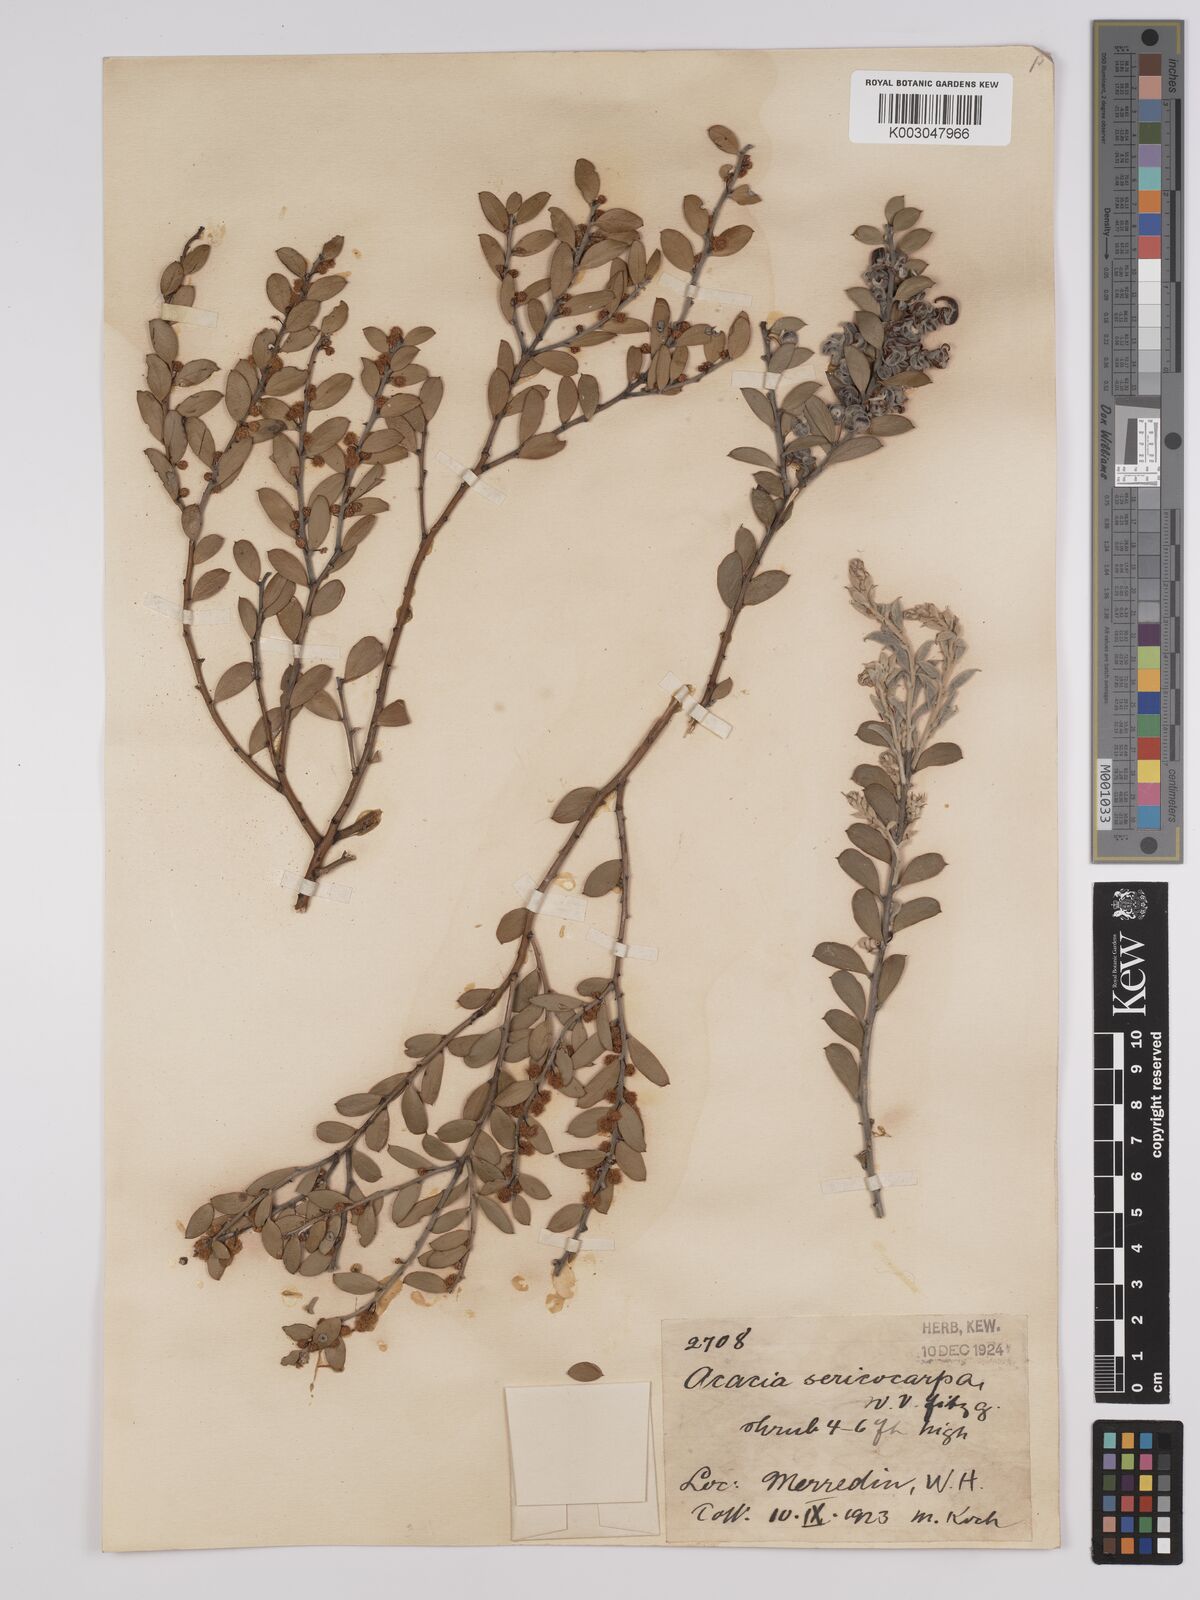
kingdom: Plantae
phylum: Tracheophyta
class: Magnoliopsida
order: Fabales
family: Fabaceae
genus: Acacia
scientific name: Acacia merrallii
